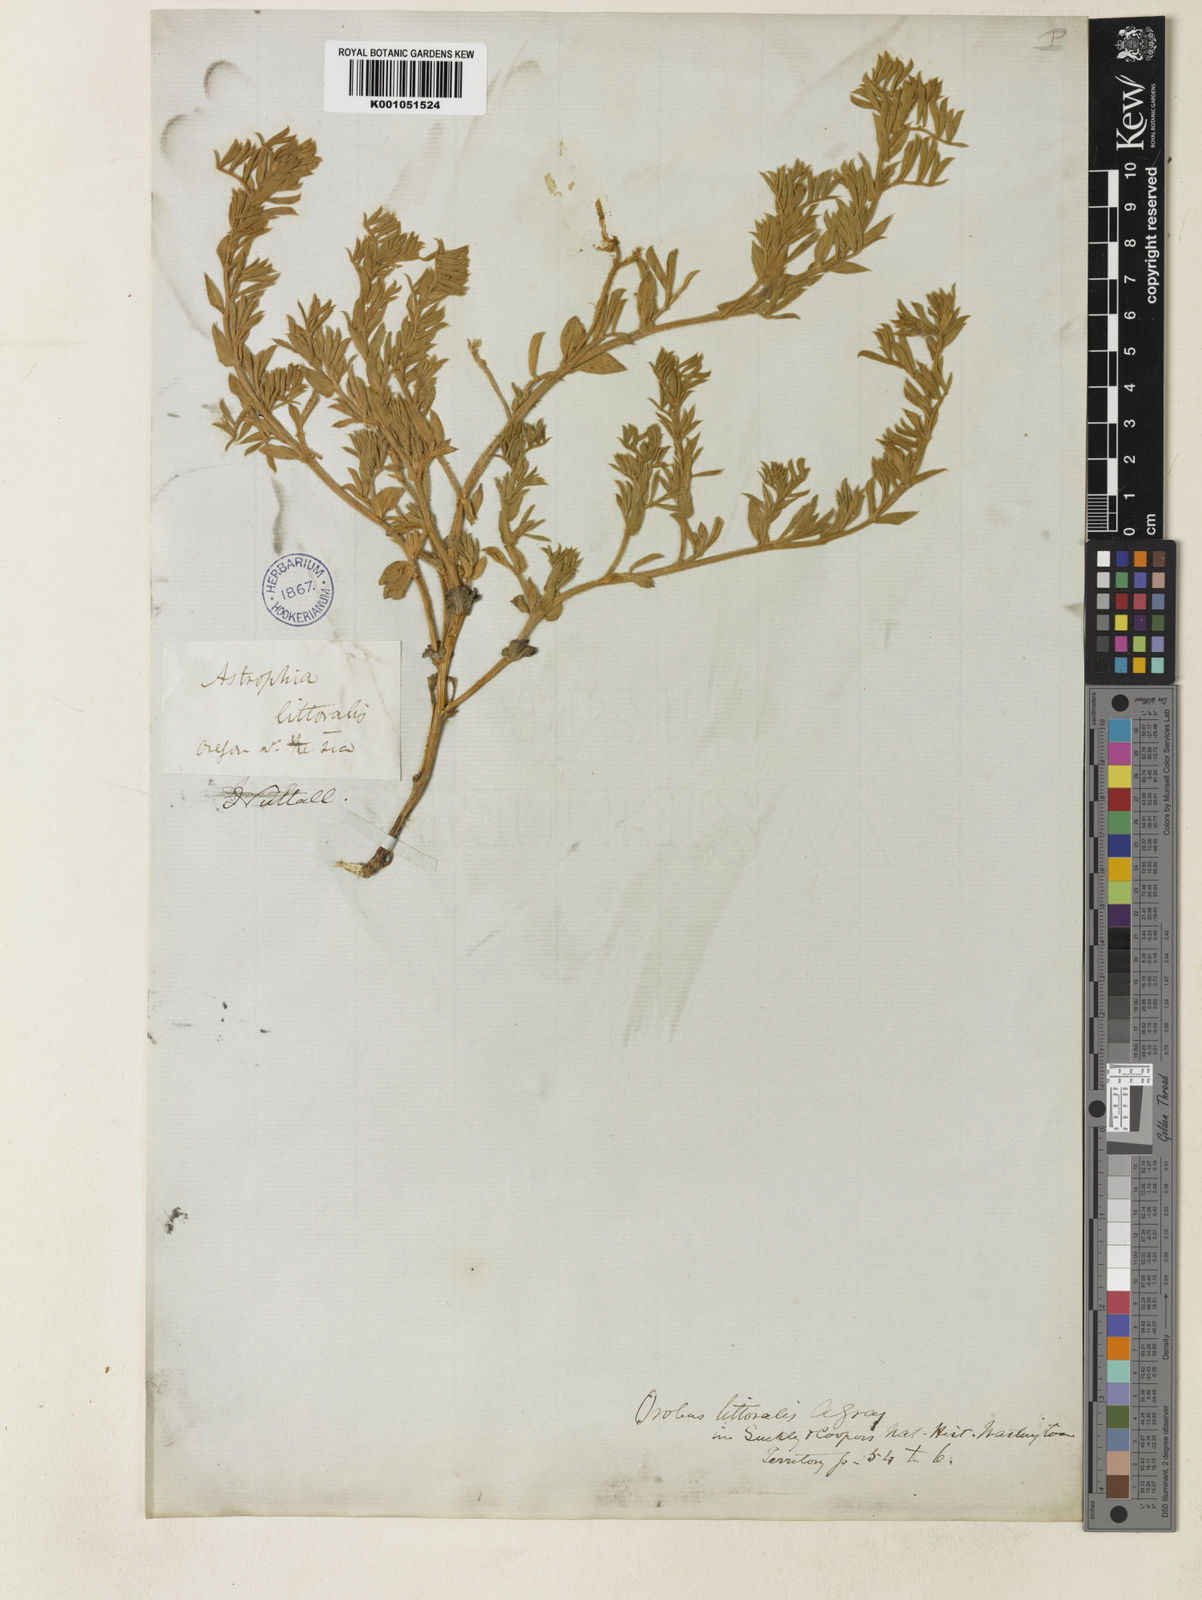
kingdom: Plantae
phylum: Tracheophyta
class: Magnoliopsida
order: Fabales
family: Fabaceae
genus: Lathyrus
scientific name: Lathyrus littoralis
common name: Dune sweet pea
